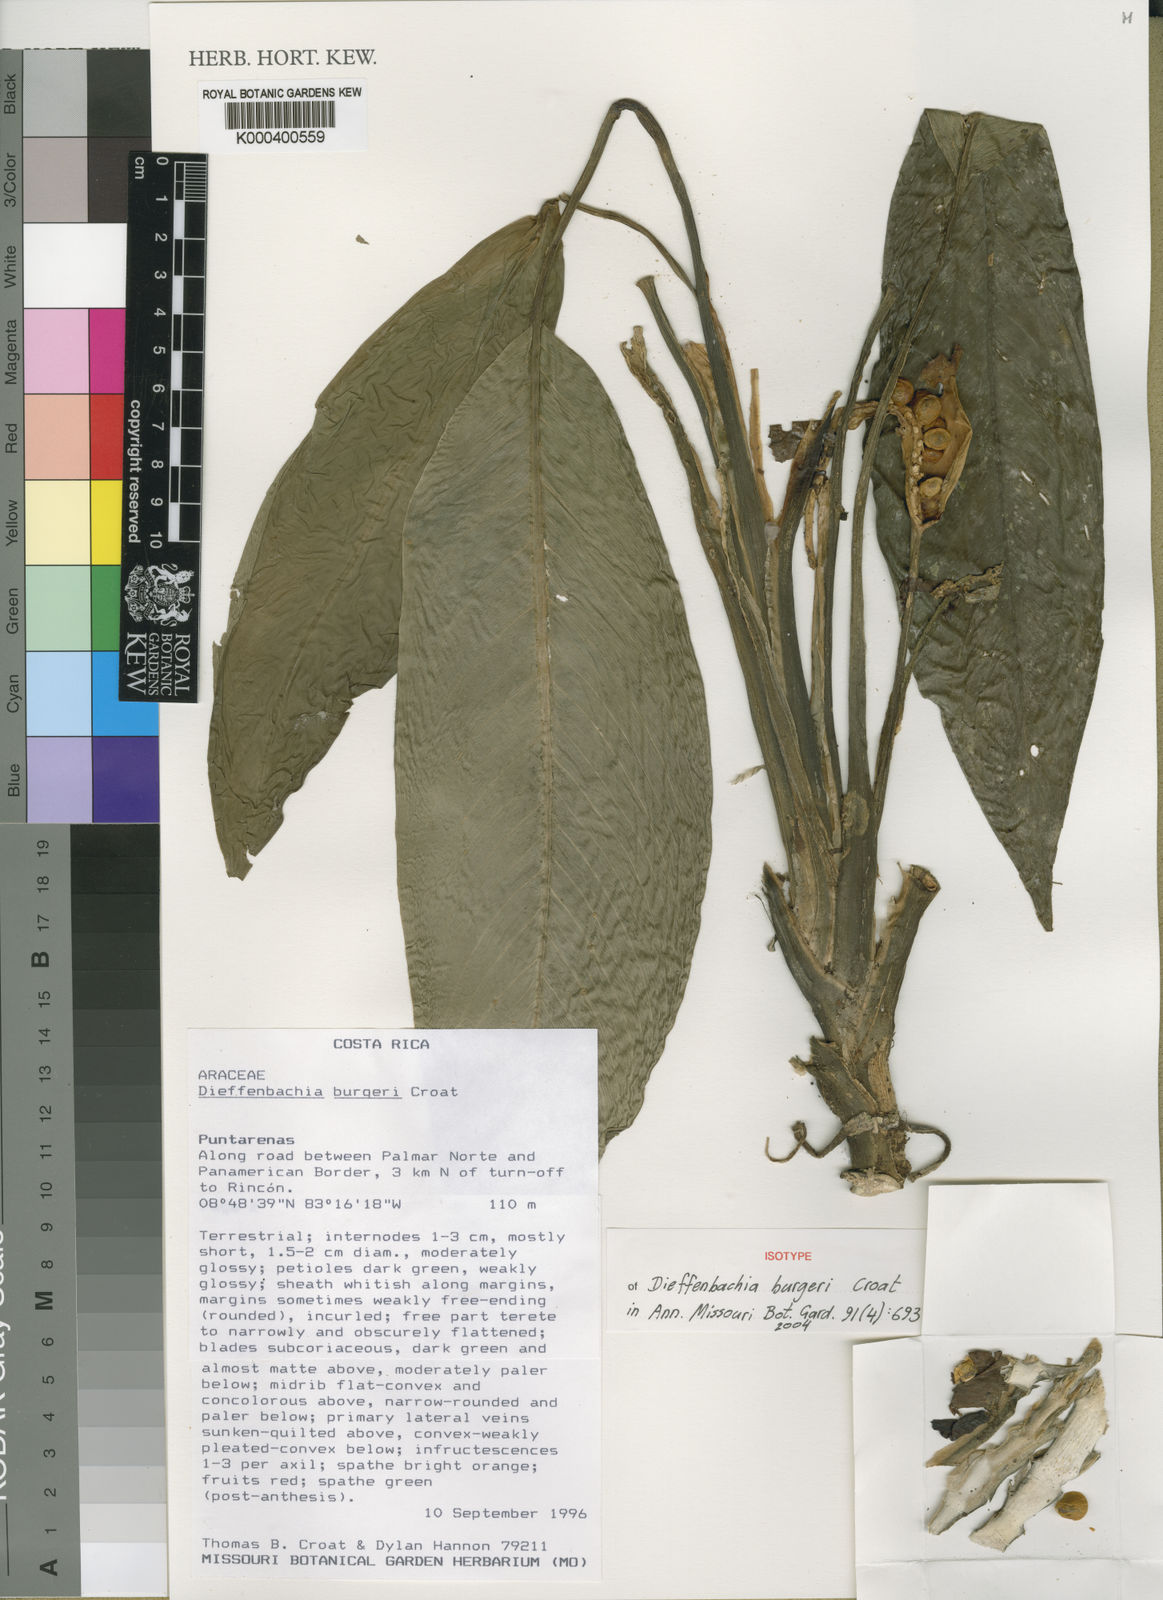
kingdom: Plantae
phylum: Tracheophyta
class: Liliopsida
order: Alismatales
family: Araceae
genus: Dieffenbachia
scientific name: Dieffenbachia burgeri
